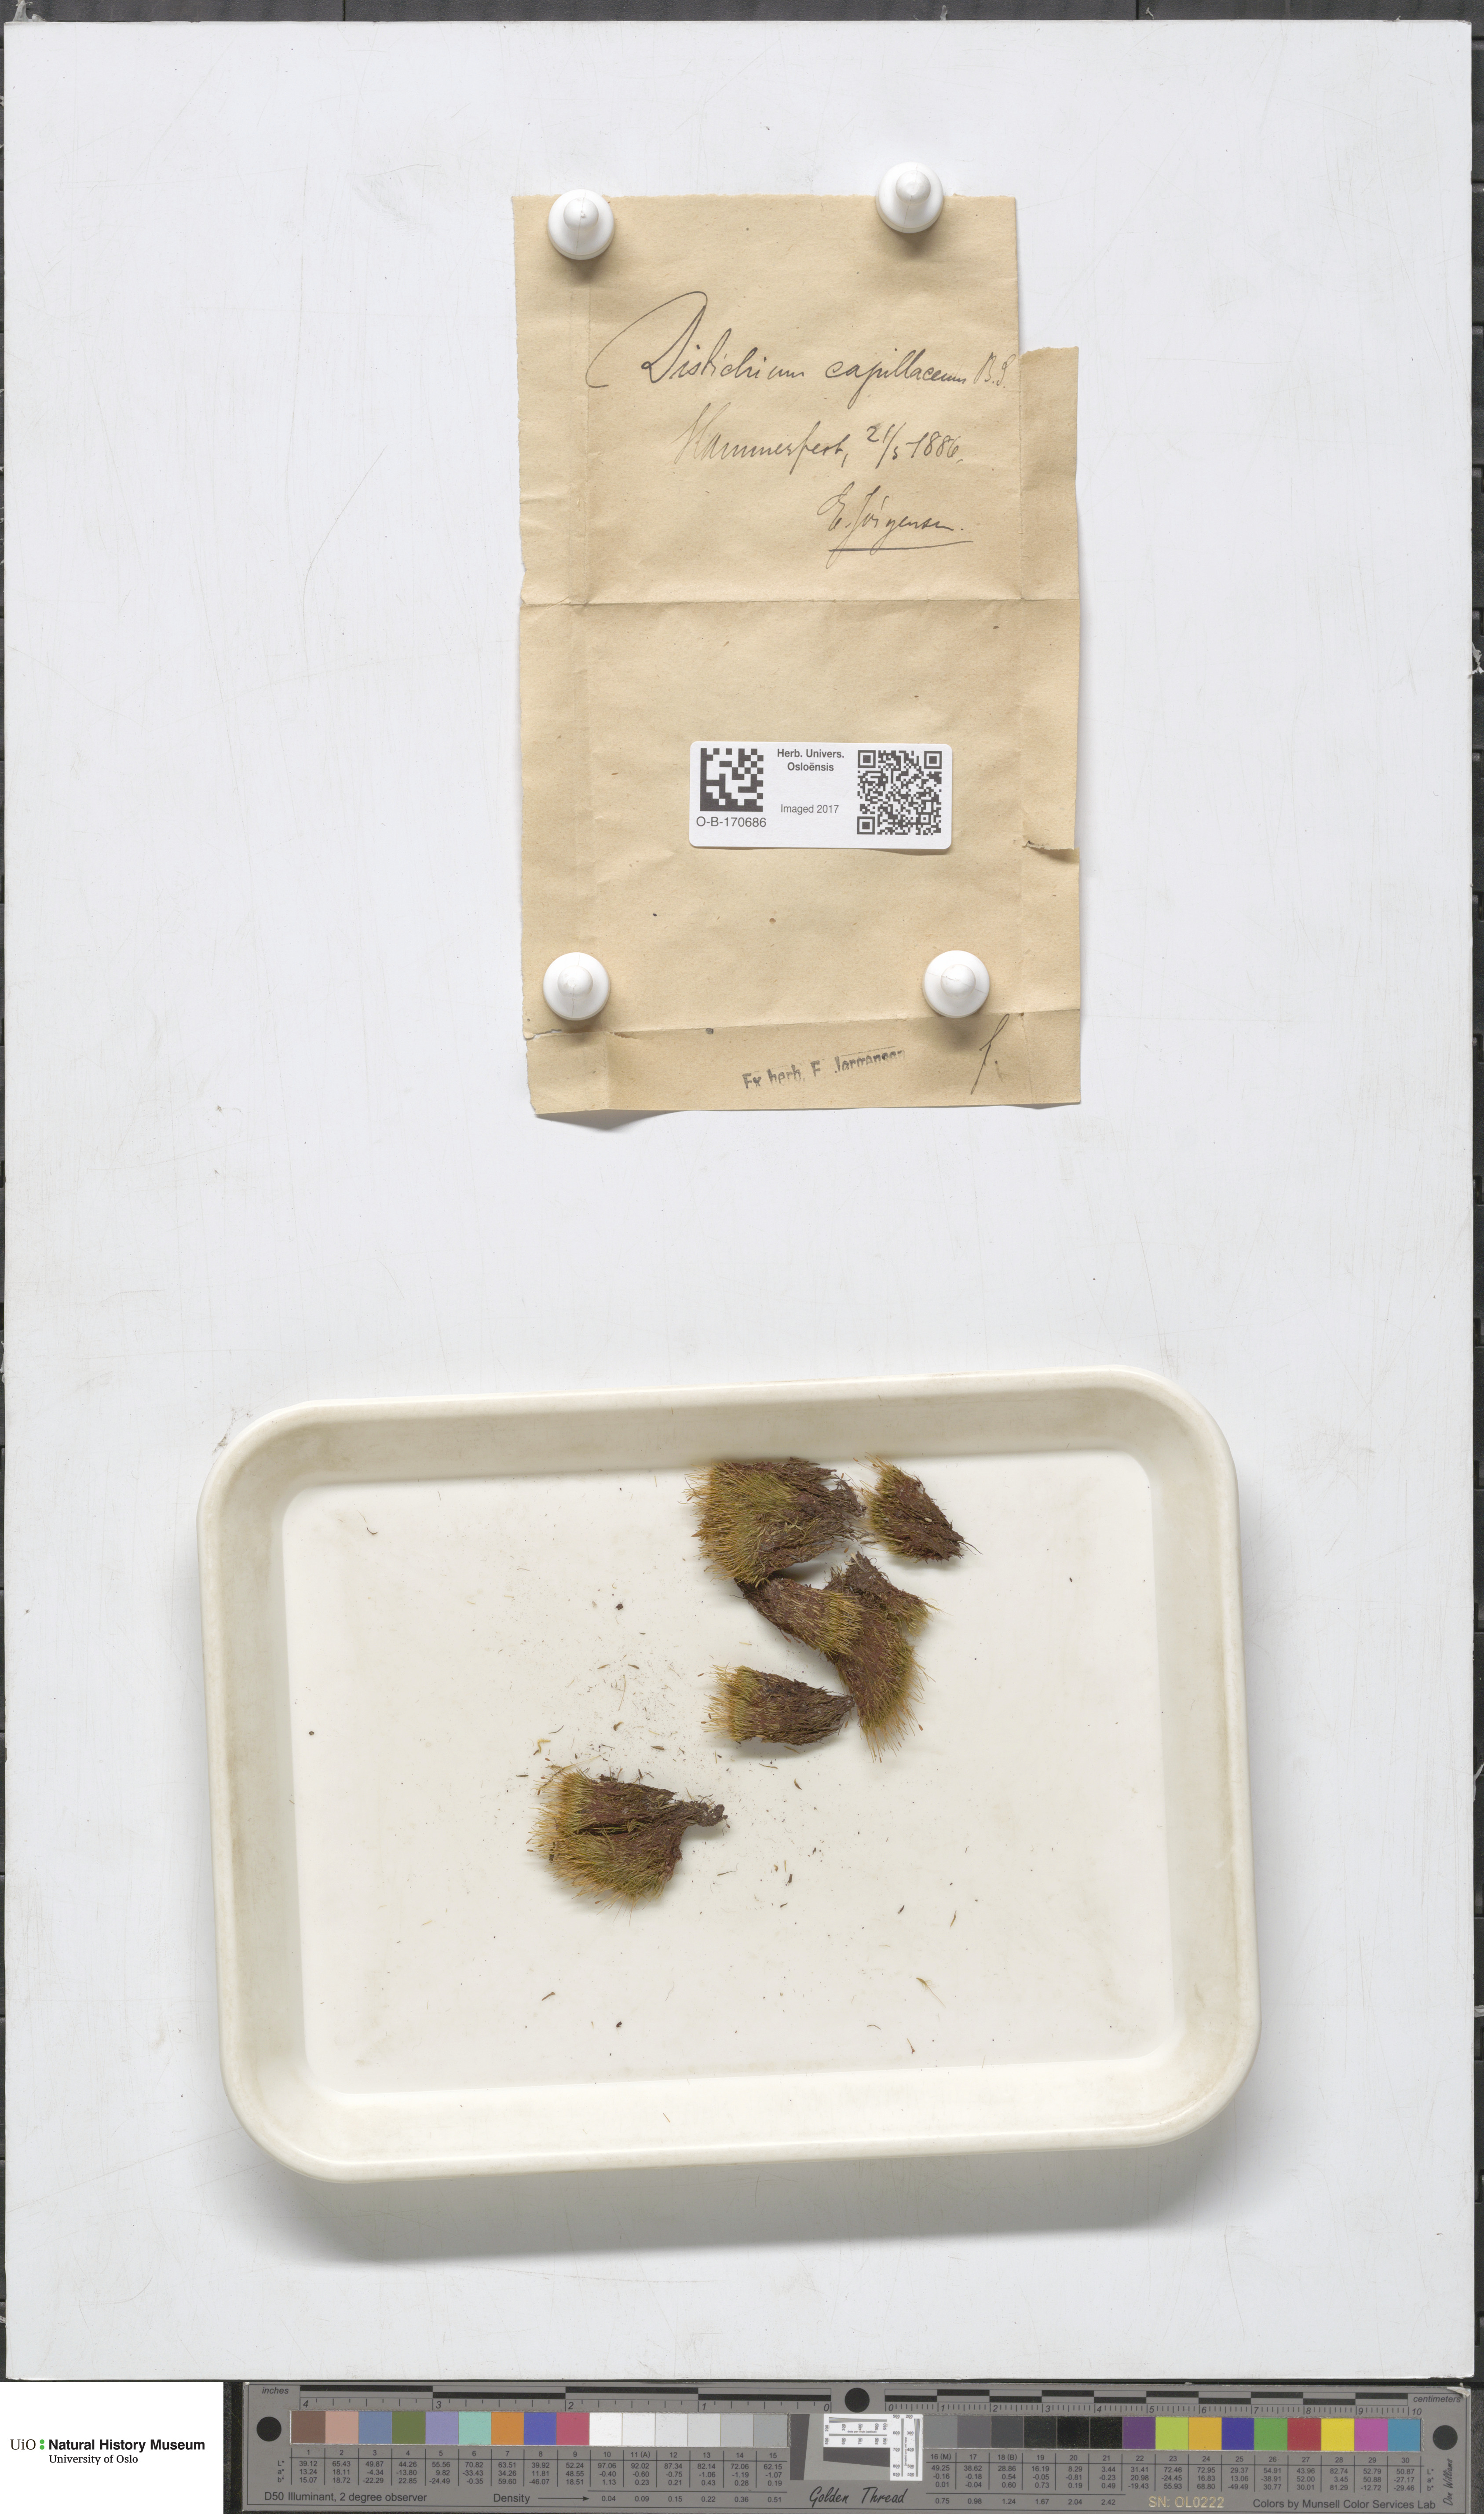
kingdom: Plantae
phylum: Bryophyta
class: Bryopsida
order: Scouleriales
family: Distichiaceae
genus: Distichium
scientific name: Distichium capillaceum
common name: Erect-fruited iris moss
